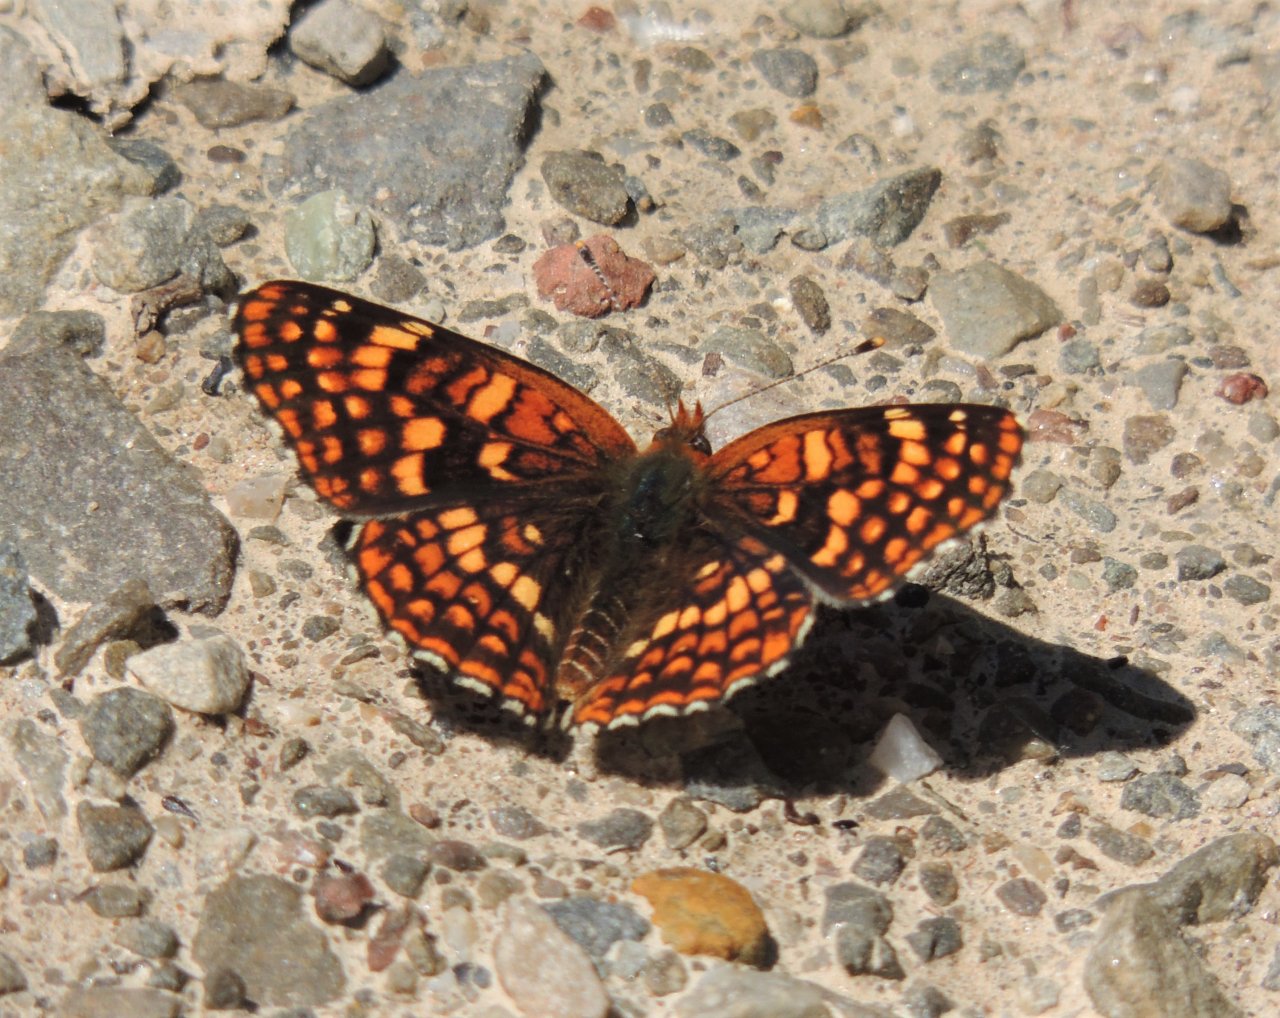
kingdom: Animalia
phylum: Arthropoda
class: Insecta
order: Lepidoptera
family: Nymphalidae
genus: Chlosyne
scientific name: Chlosyne palla
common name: Northern Checkerspot
